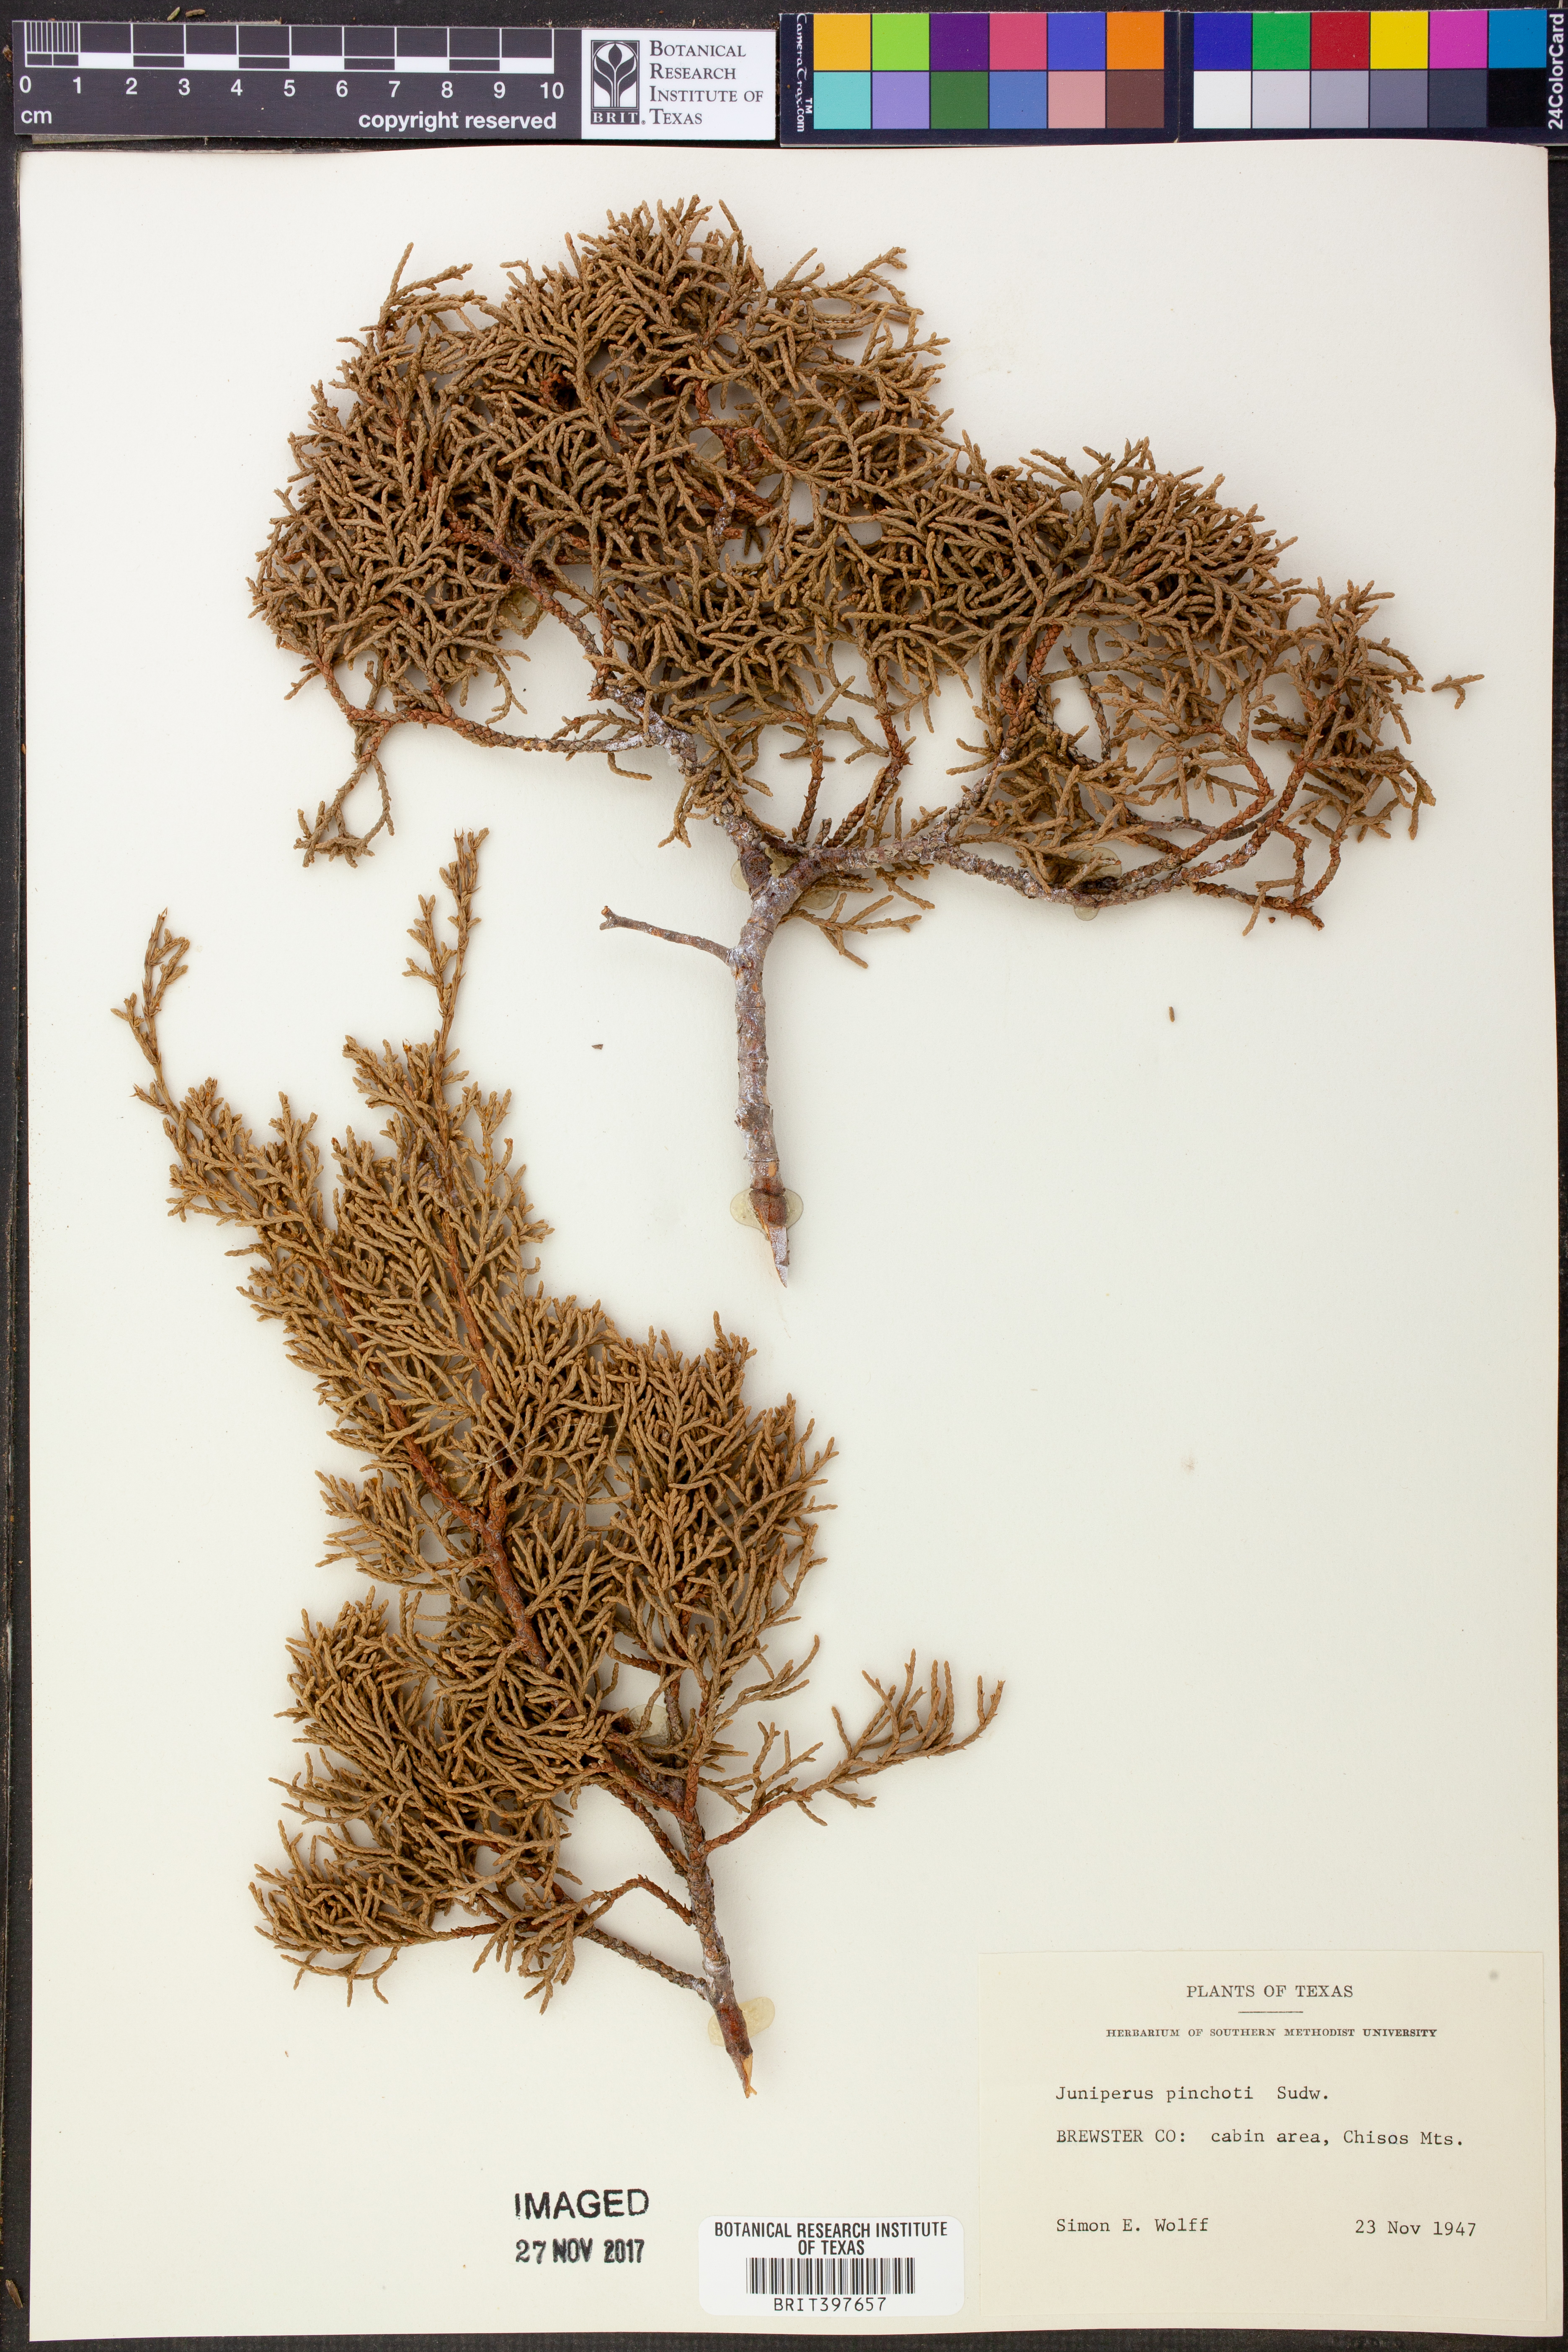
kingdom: Plantae
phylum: Tracheophyta
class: Pinopsida
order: Pinales
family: Cupressaceae
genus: Juniperus
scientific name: Juniperus pinchotii
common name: Pinchot juniper
